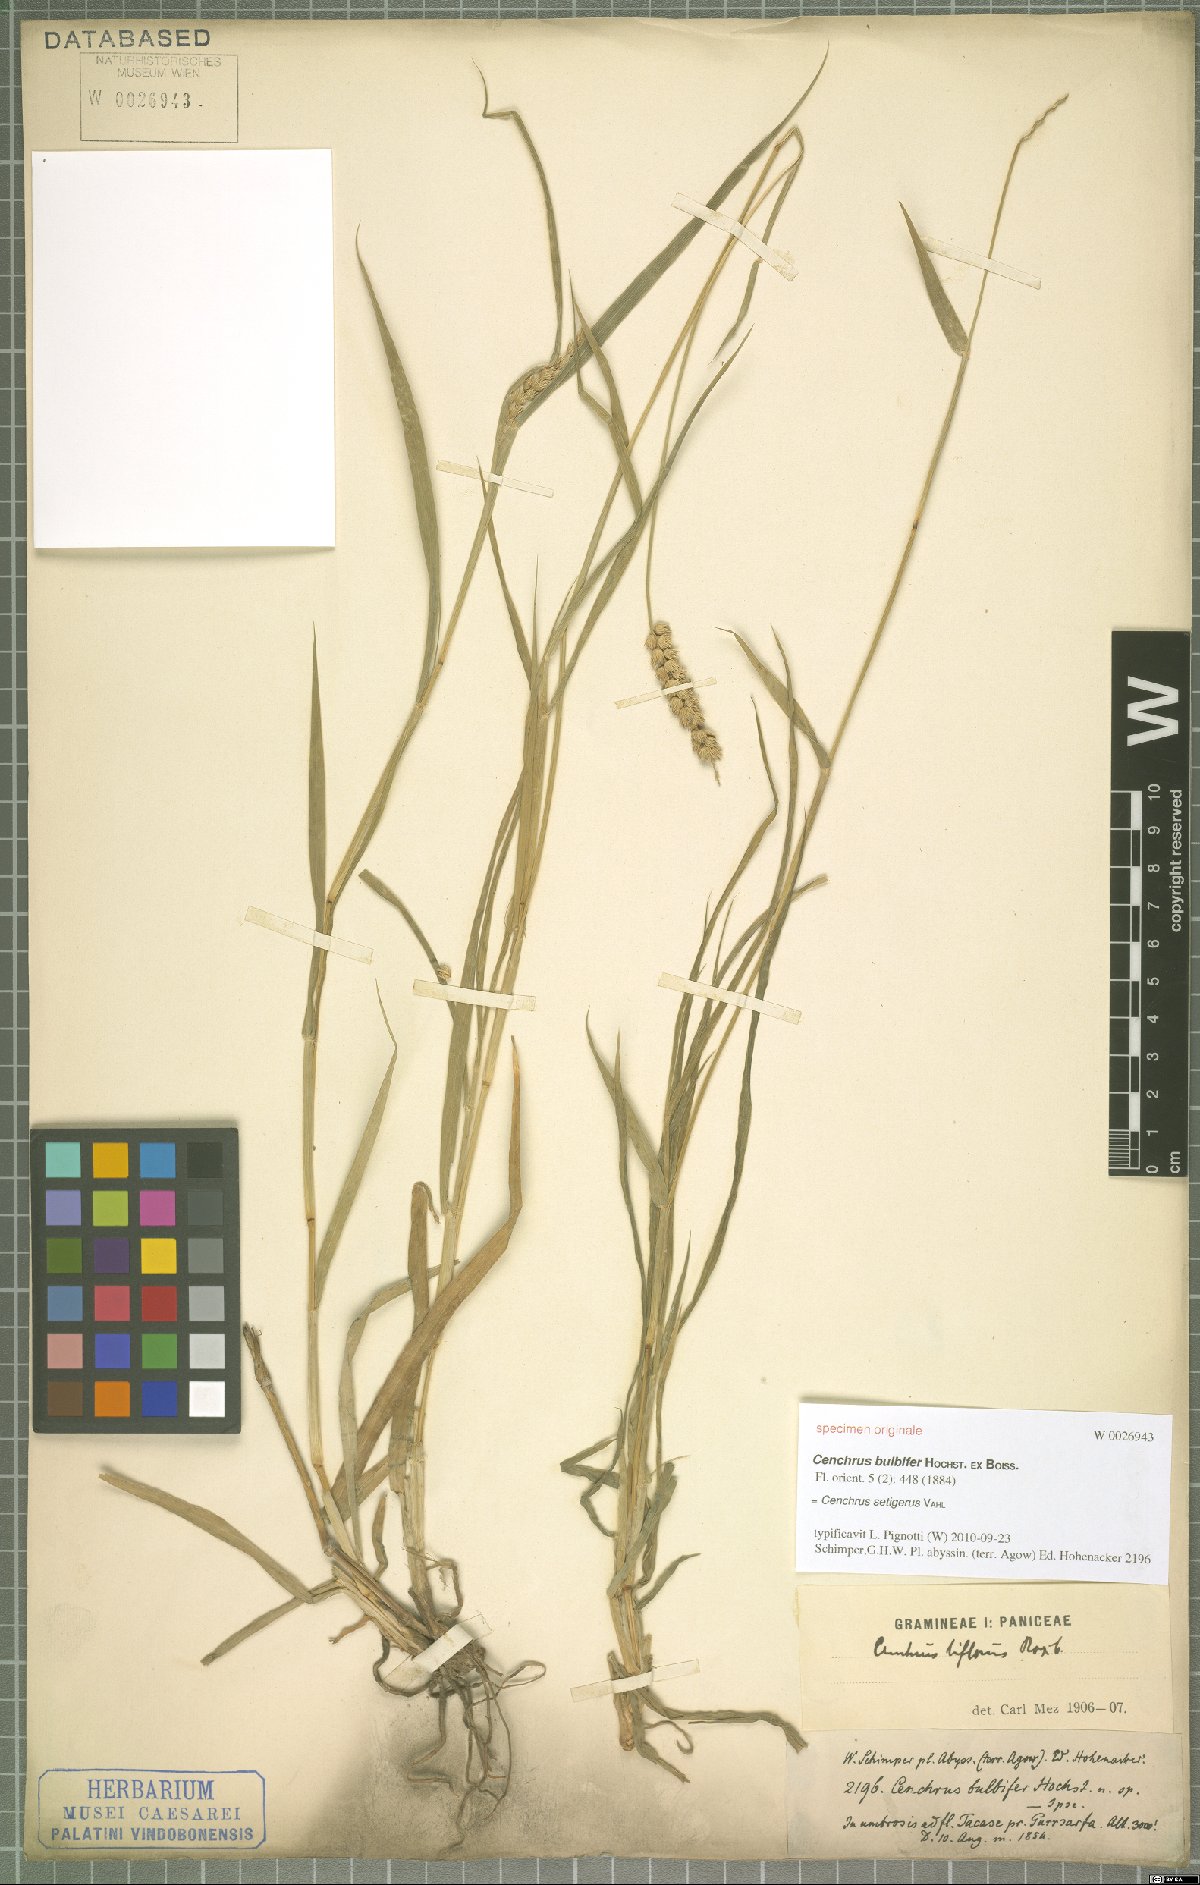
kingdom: Plantae
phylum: Tracheophyta
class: Liliopsida
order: Poales
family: Poaceae
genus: Cenchrus
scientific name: Cenchrus setigerus
